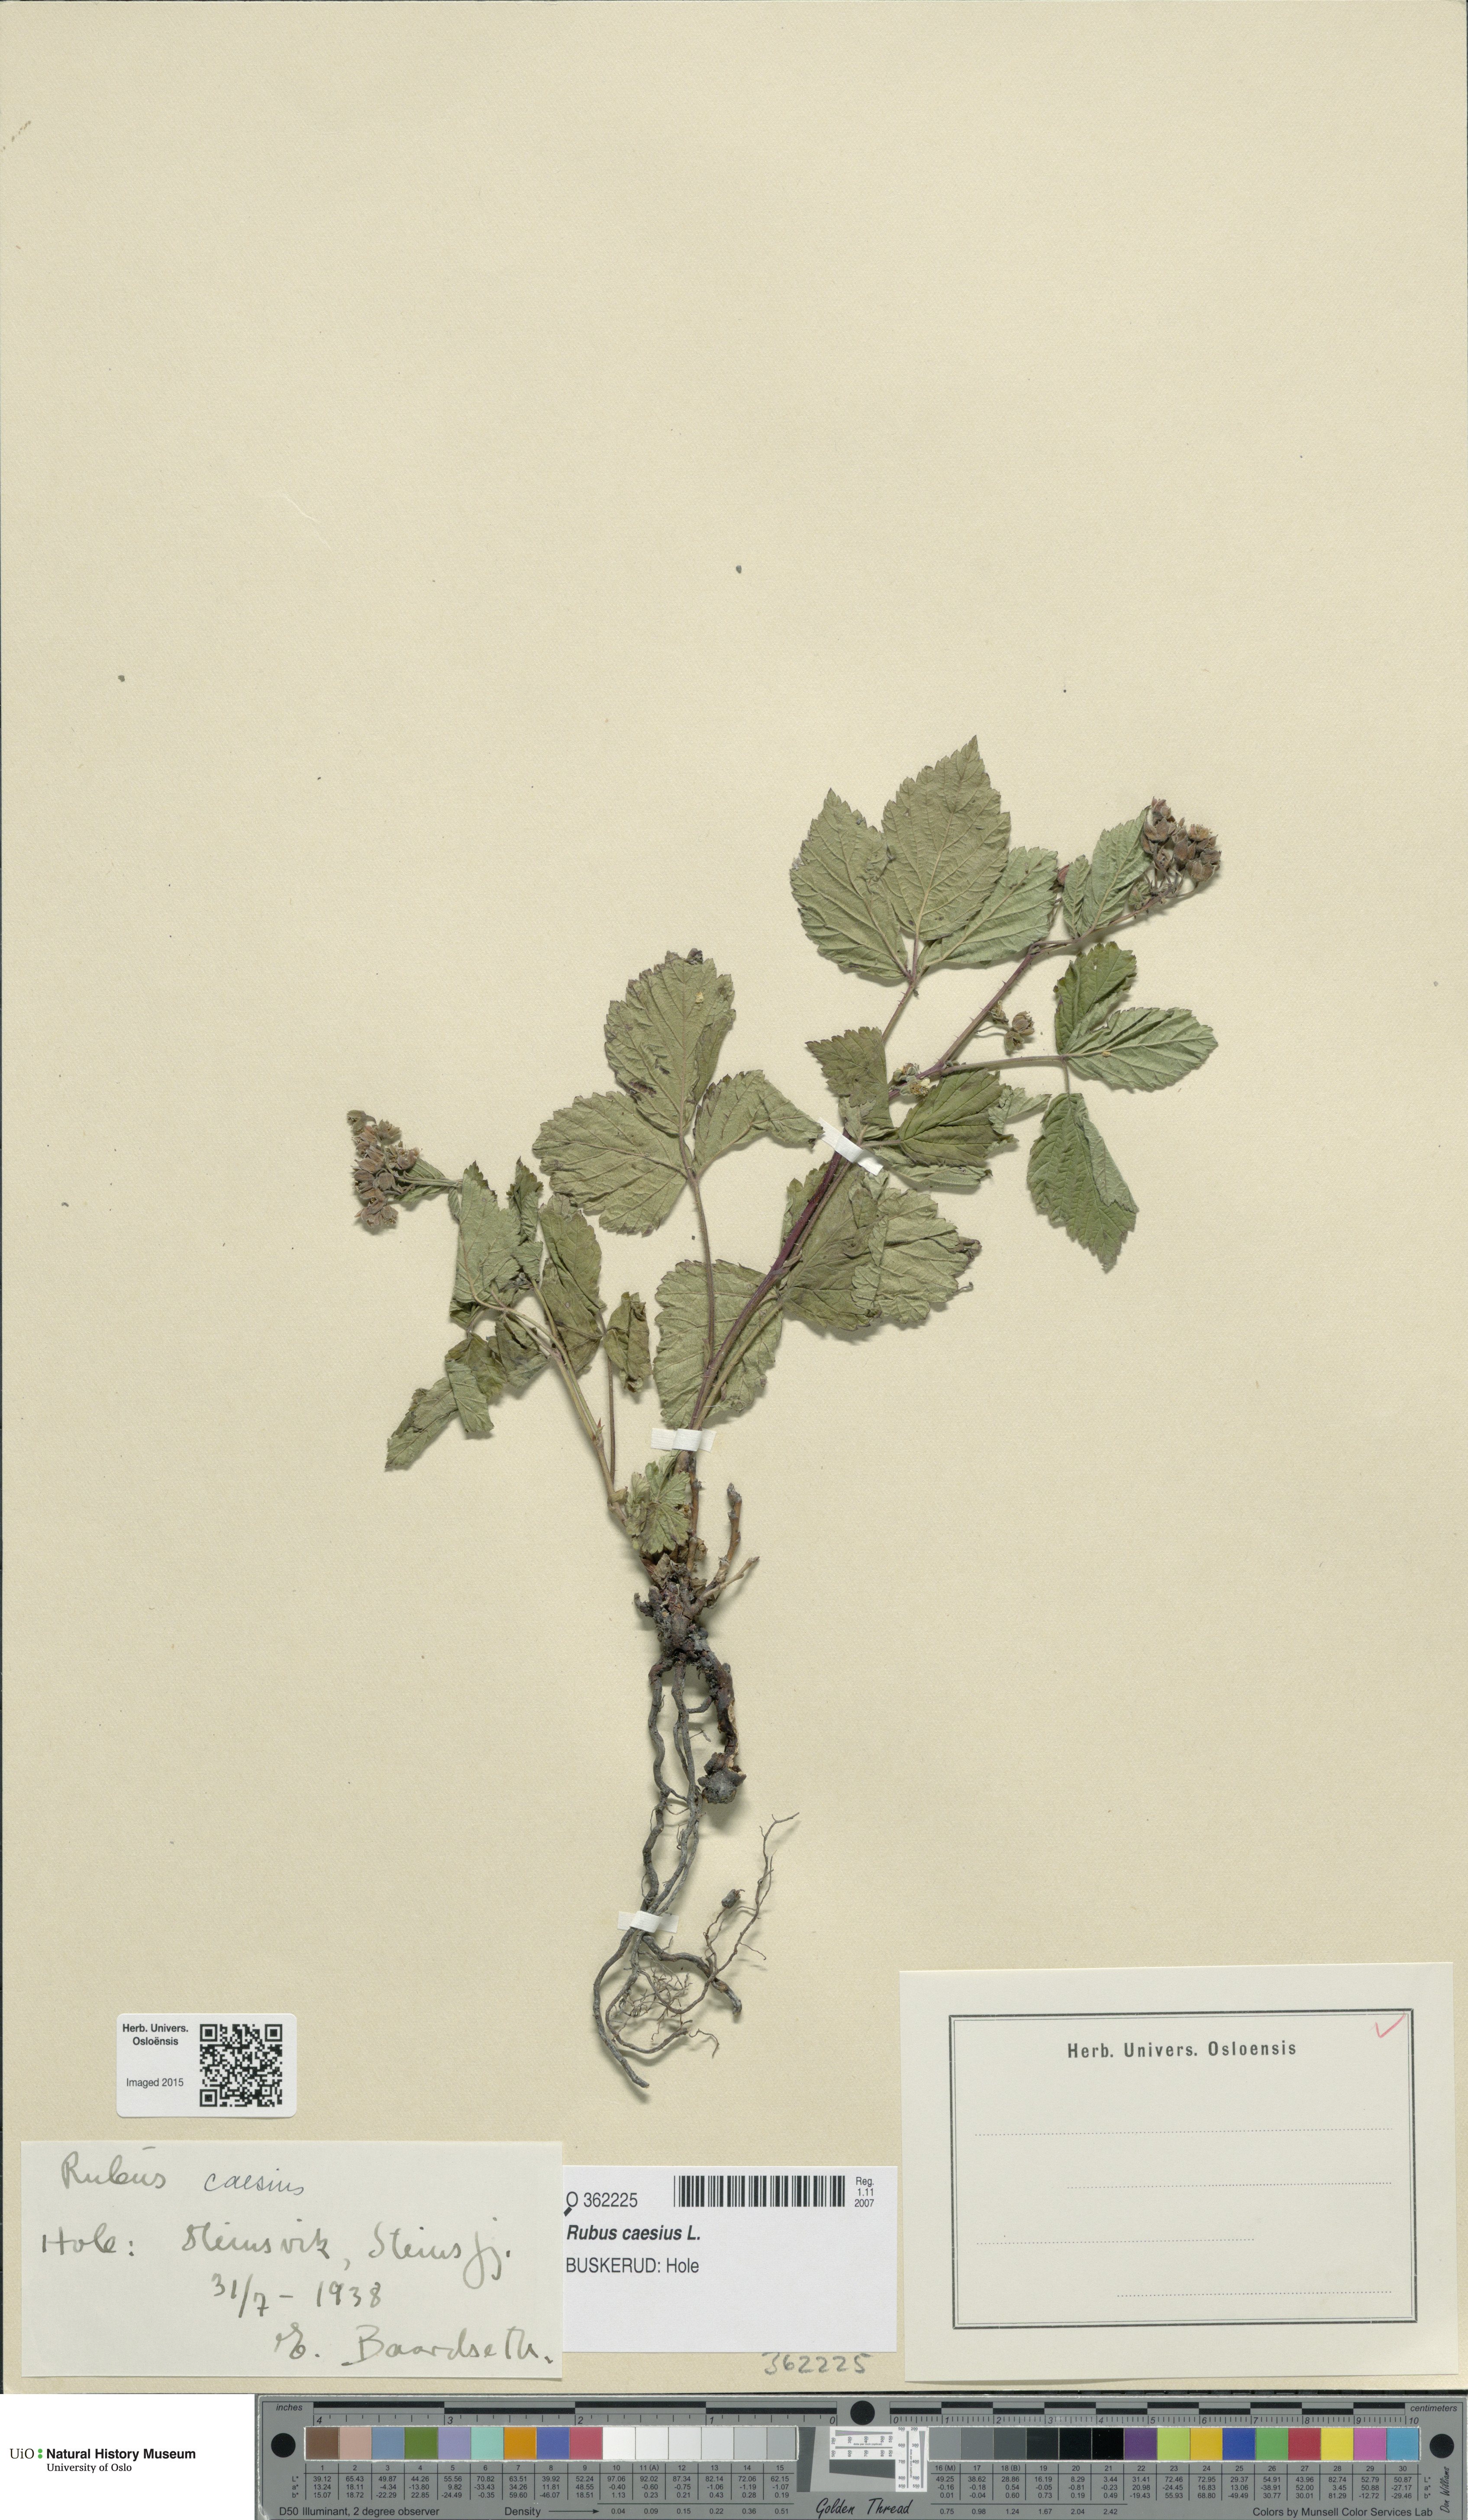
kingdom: Plantae
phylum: Tracheophyta
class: Magnoliopsida
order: Rosales
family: Rosaceae
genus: Rubus
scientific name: Rubus caesius
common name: Dewberry
